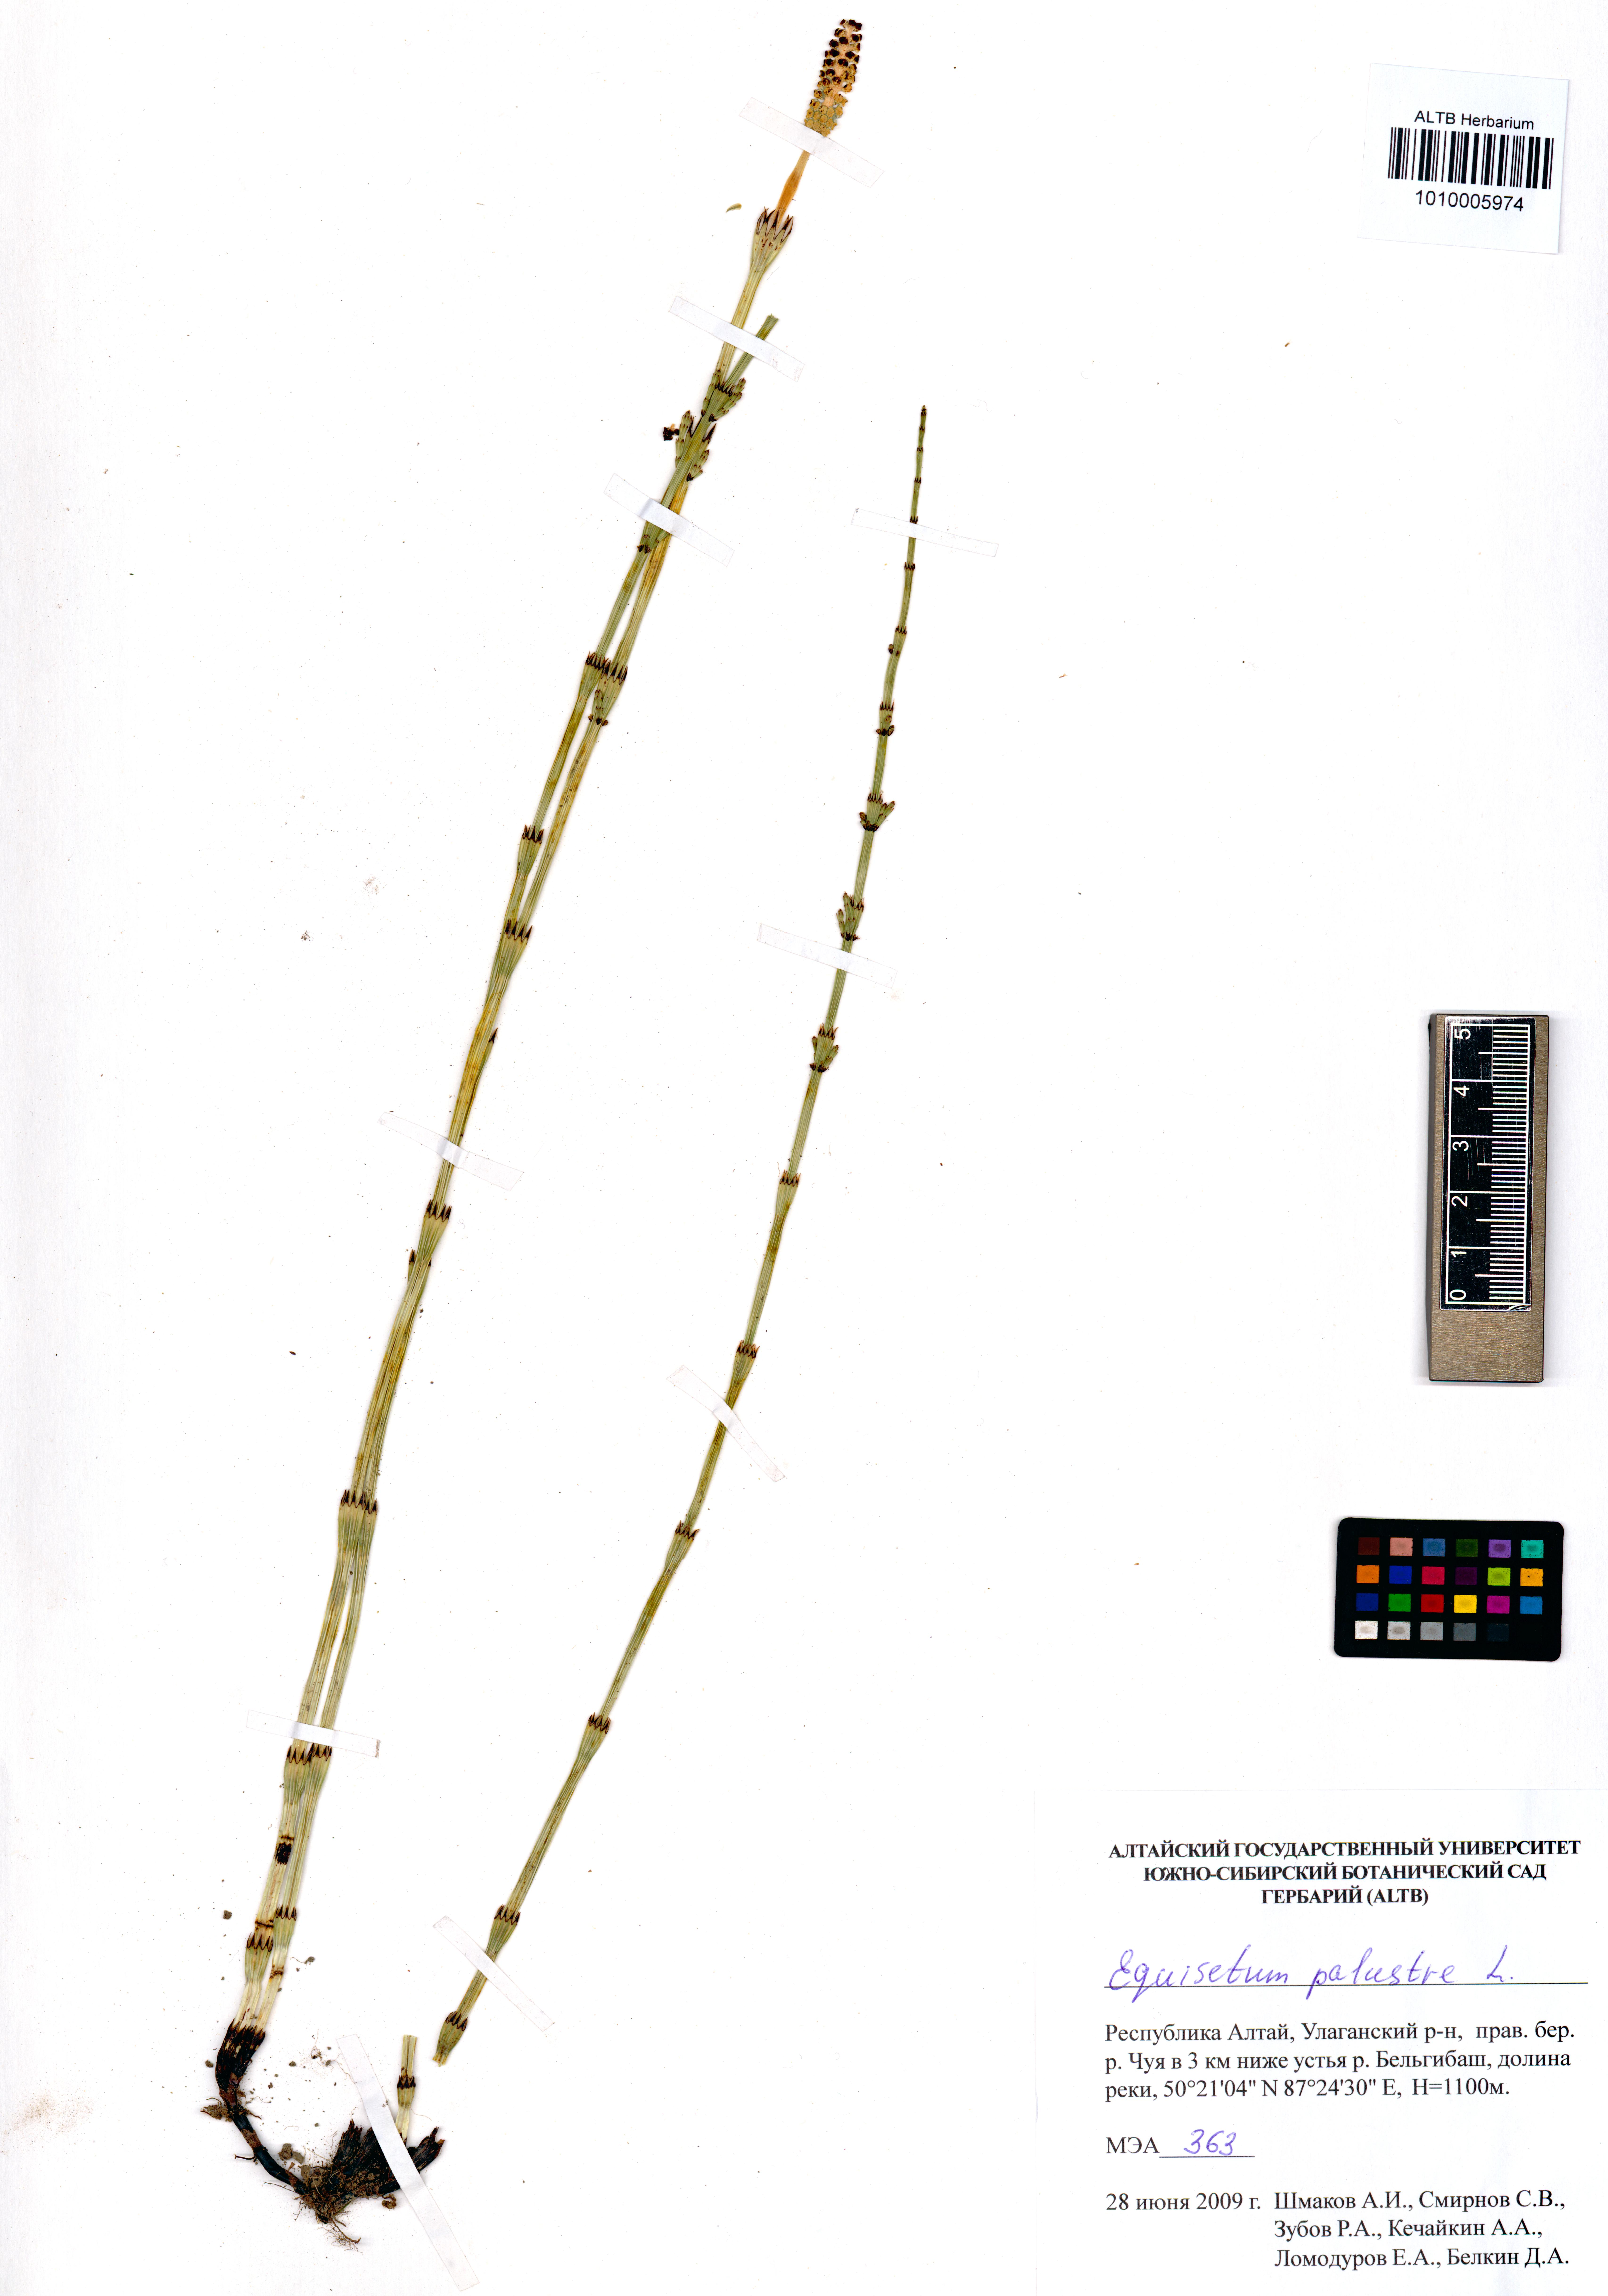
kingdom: Plantae
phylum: Tracheophyta
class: Polypodiopsida
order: Equisetales
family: Equisetaceae
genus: Equisetum
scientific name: Equisetum palustre
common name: Marsh horsetail
